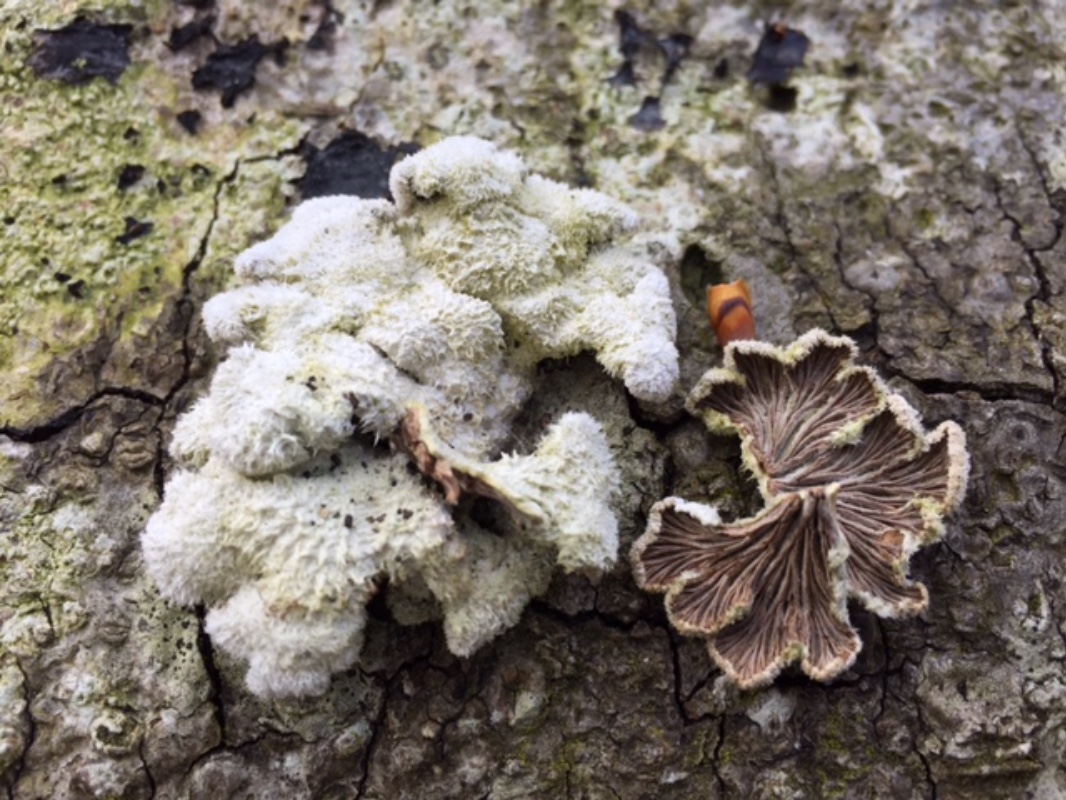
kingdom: Fungi
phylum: Basidiomycota
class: Agaricomycetes
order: Agaricales
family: Schizophyllaceae
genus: Schizophyllum
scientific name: Schizophyllum commune
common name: kløvblad
